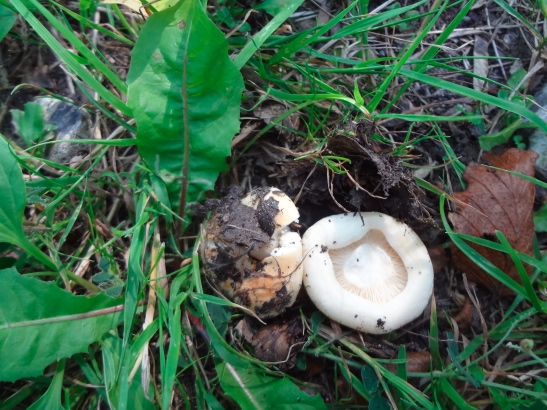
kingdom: Fungi
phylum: Basidiomycota
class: Agaricomycetes
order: Russulales
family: Russulaceae
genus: Lactarius
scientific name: Lactarius evosmus
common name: bæltet mælkehat
